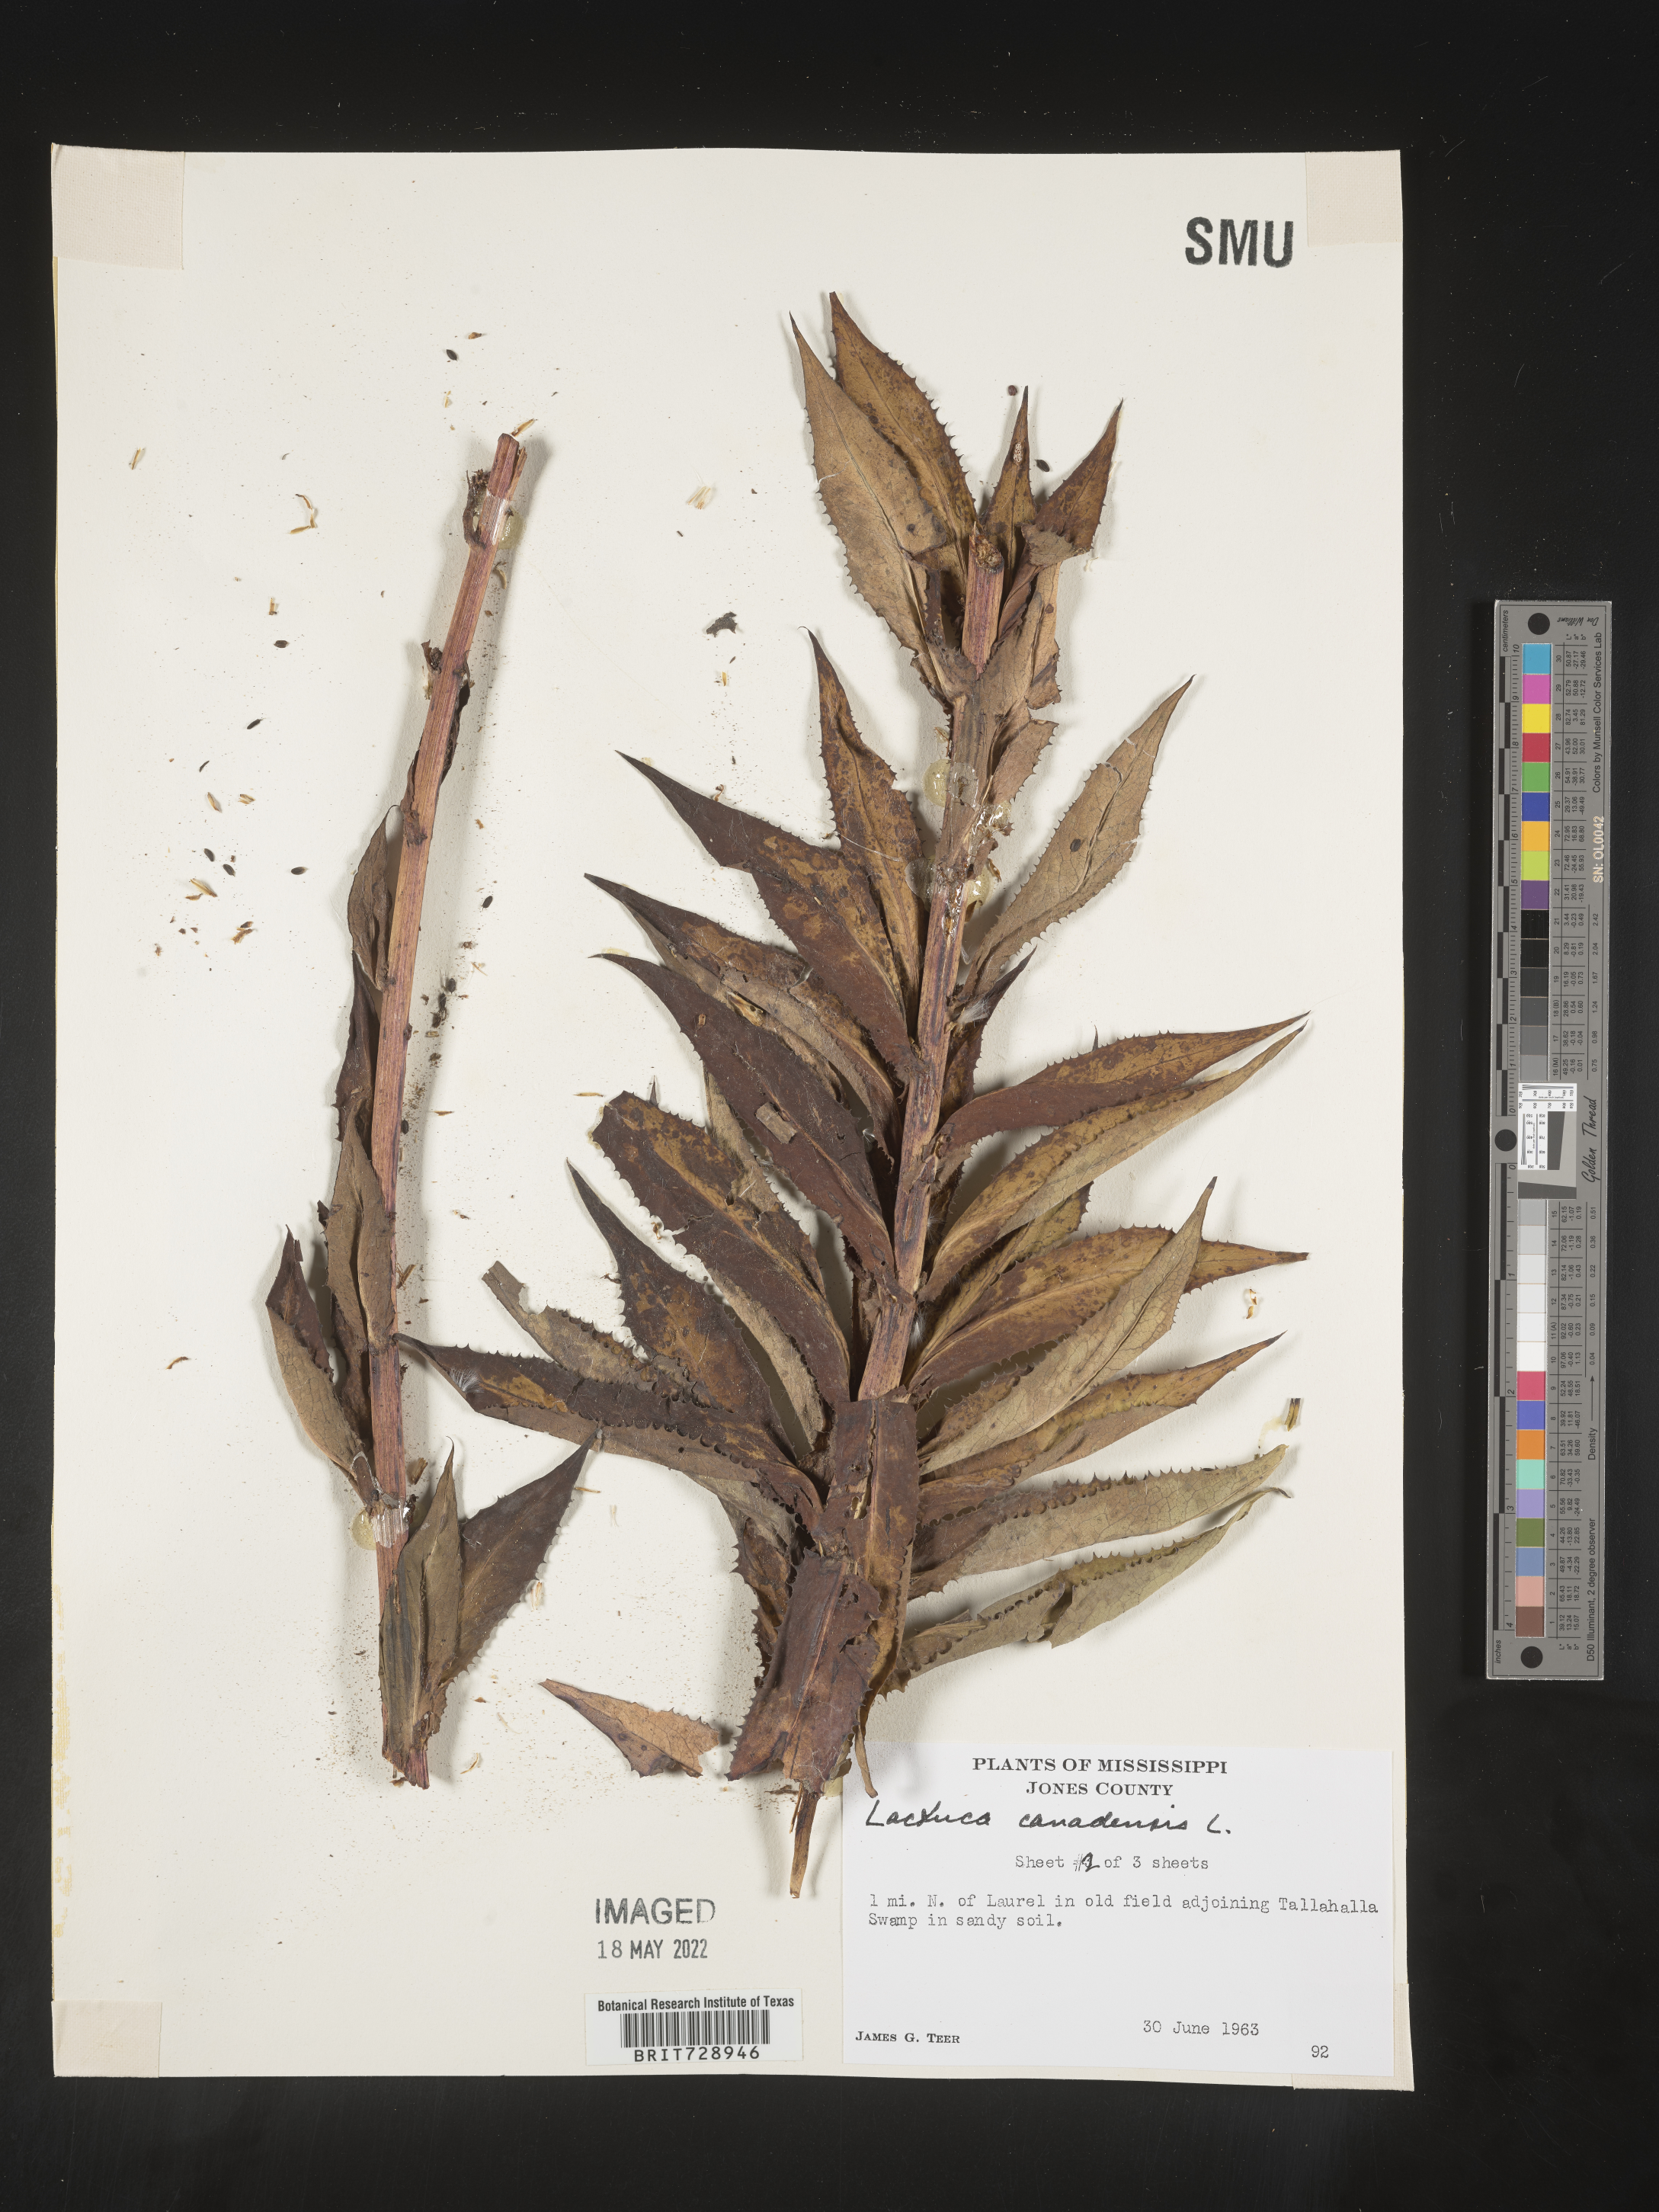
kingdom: Plantae
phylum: Tracheophyta
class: Magnoliopsida
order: Asterales
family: Asteraceae
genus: Lactuca
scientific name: Lactuca canadensis
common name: Canada lettuce
